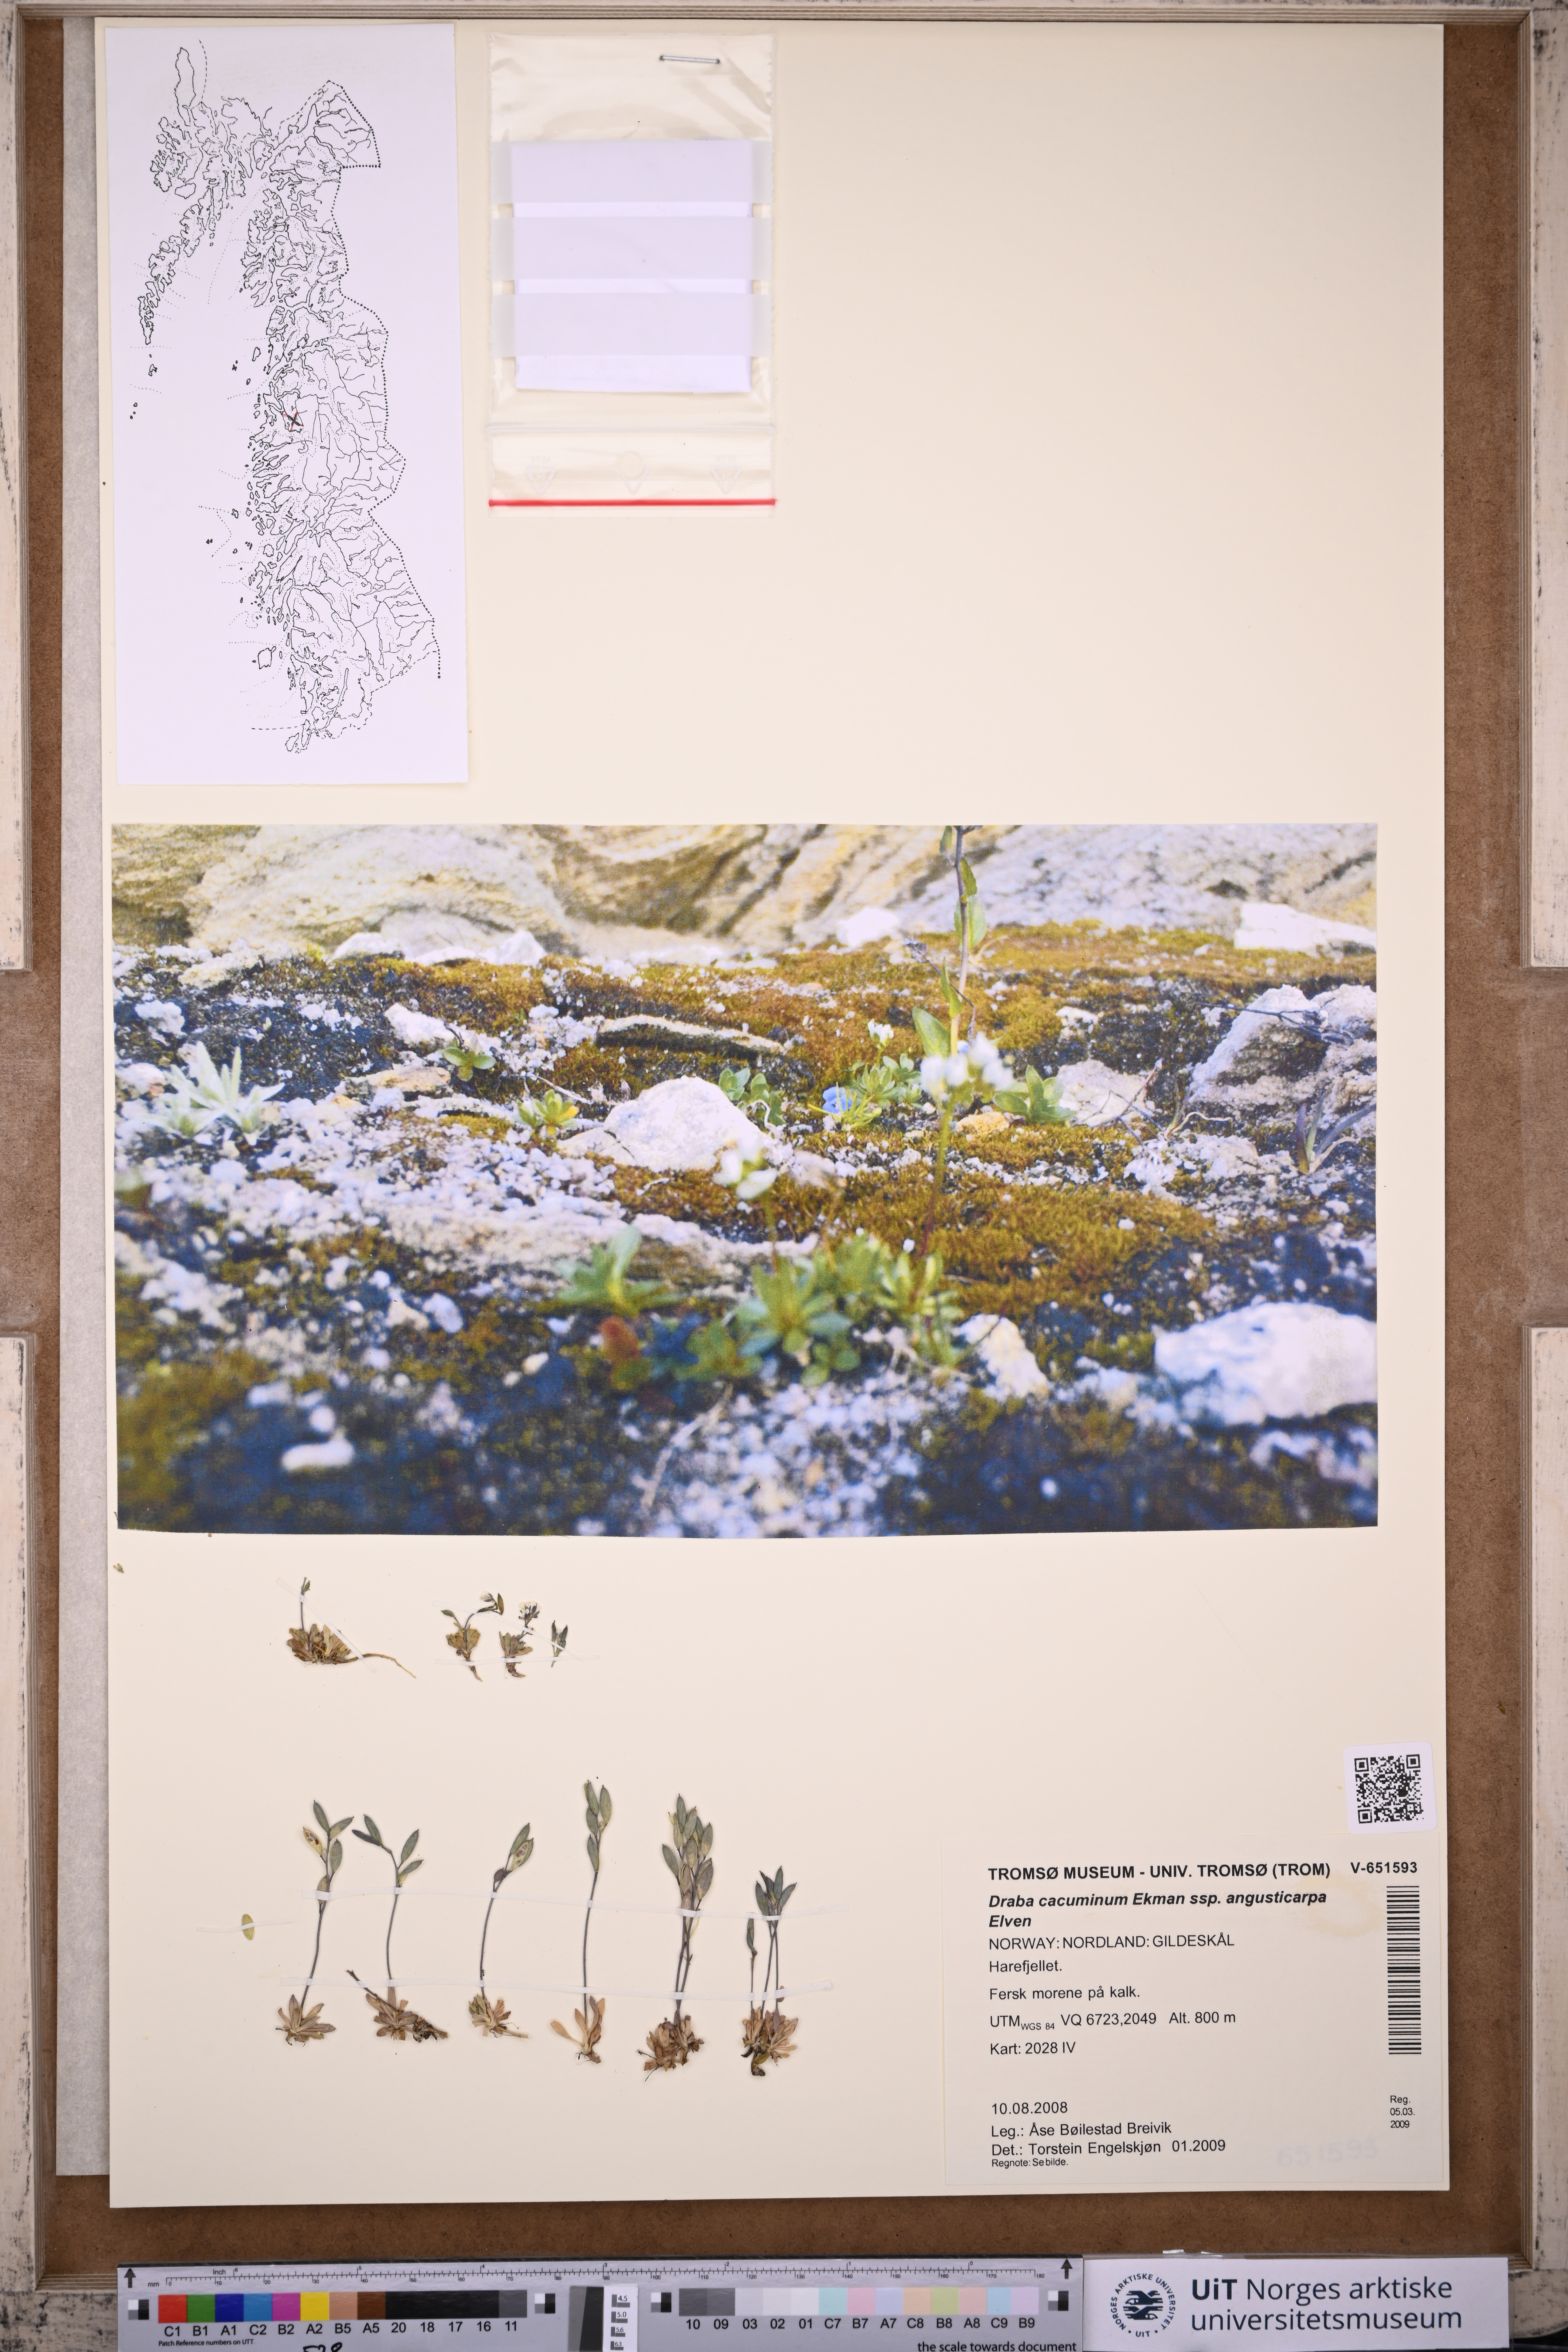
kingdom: Plantae
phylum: Tracheophyta
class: Magnoliopsida
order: Brassicales
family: Brassicaceae
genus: Draba
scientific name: Draba cacuminum
